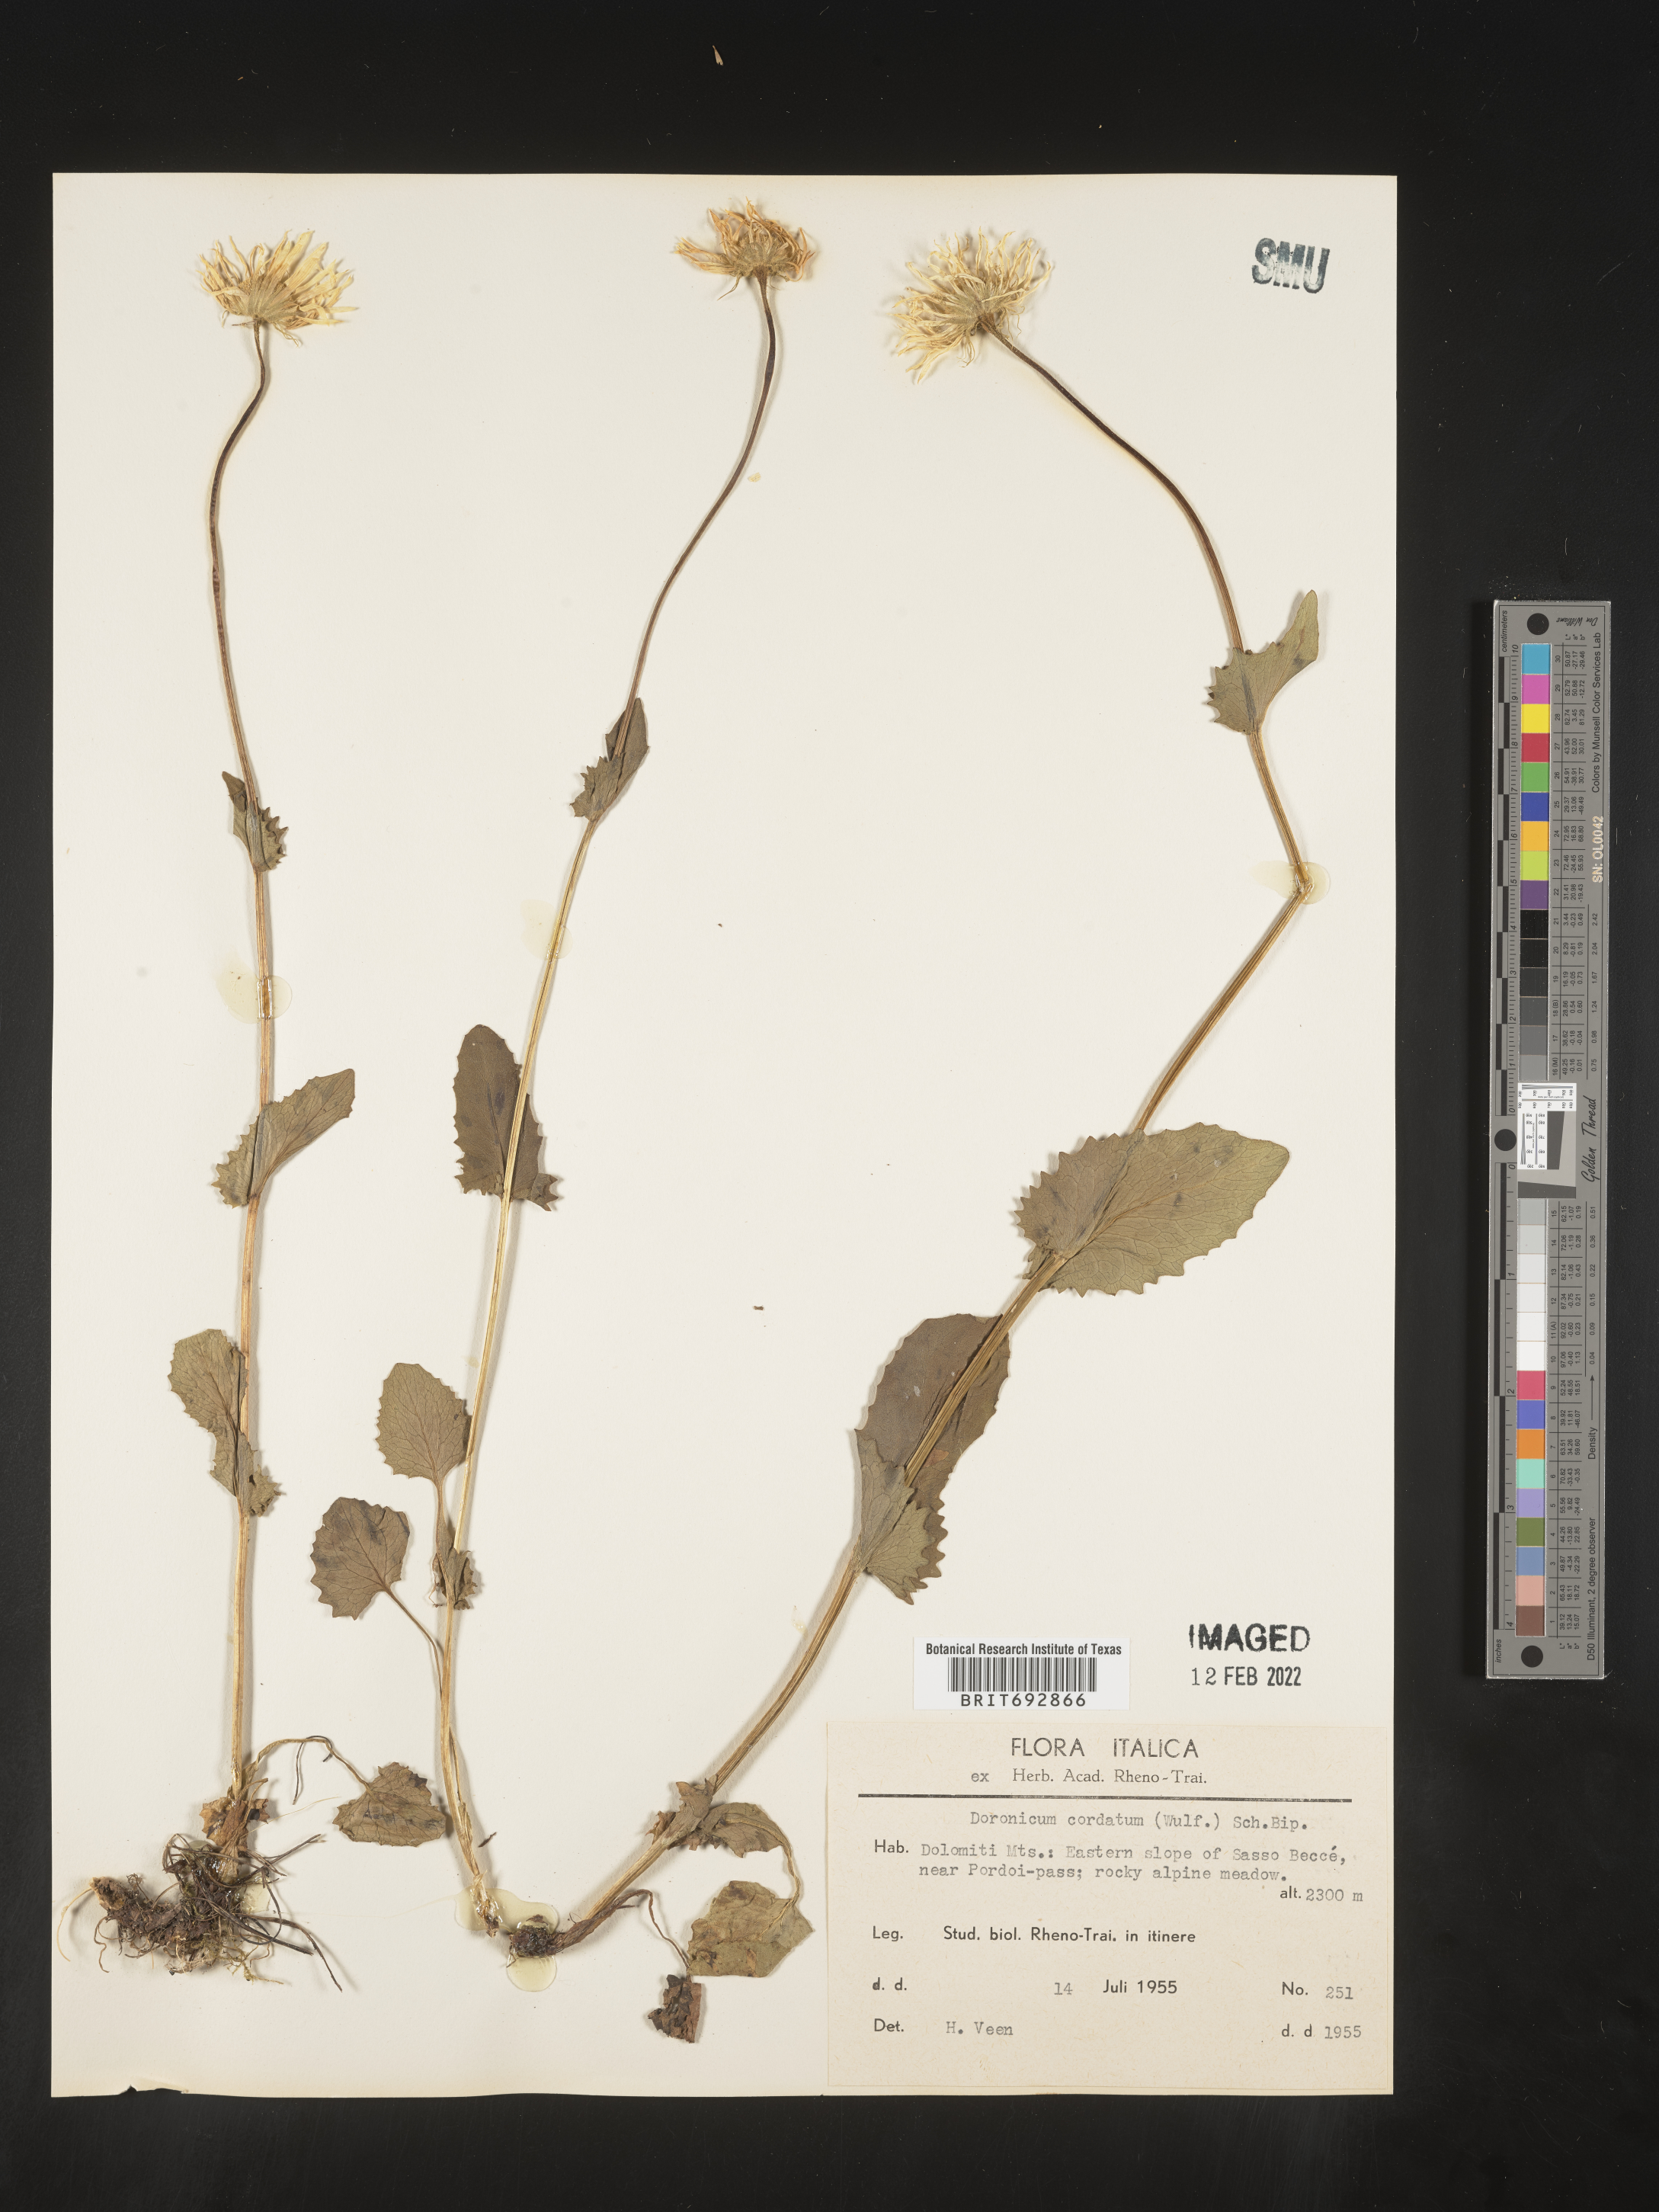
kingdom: Plantae
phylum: Tracheophyta
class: Magnoliopsida
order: Asterales
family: Asteraceae
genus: Doronicum
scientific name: Doronicum
